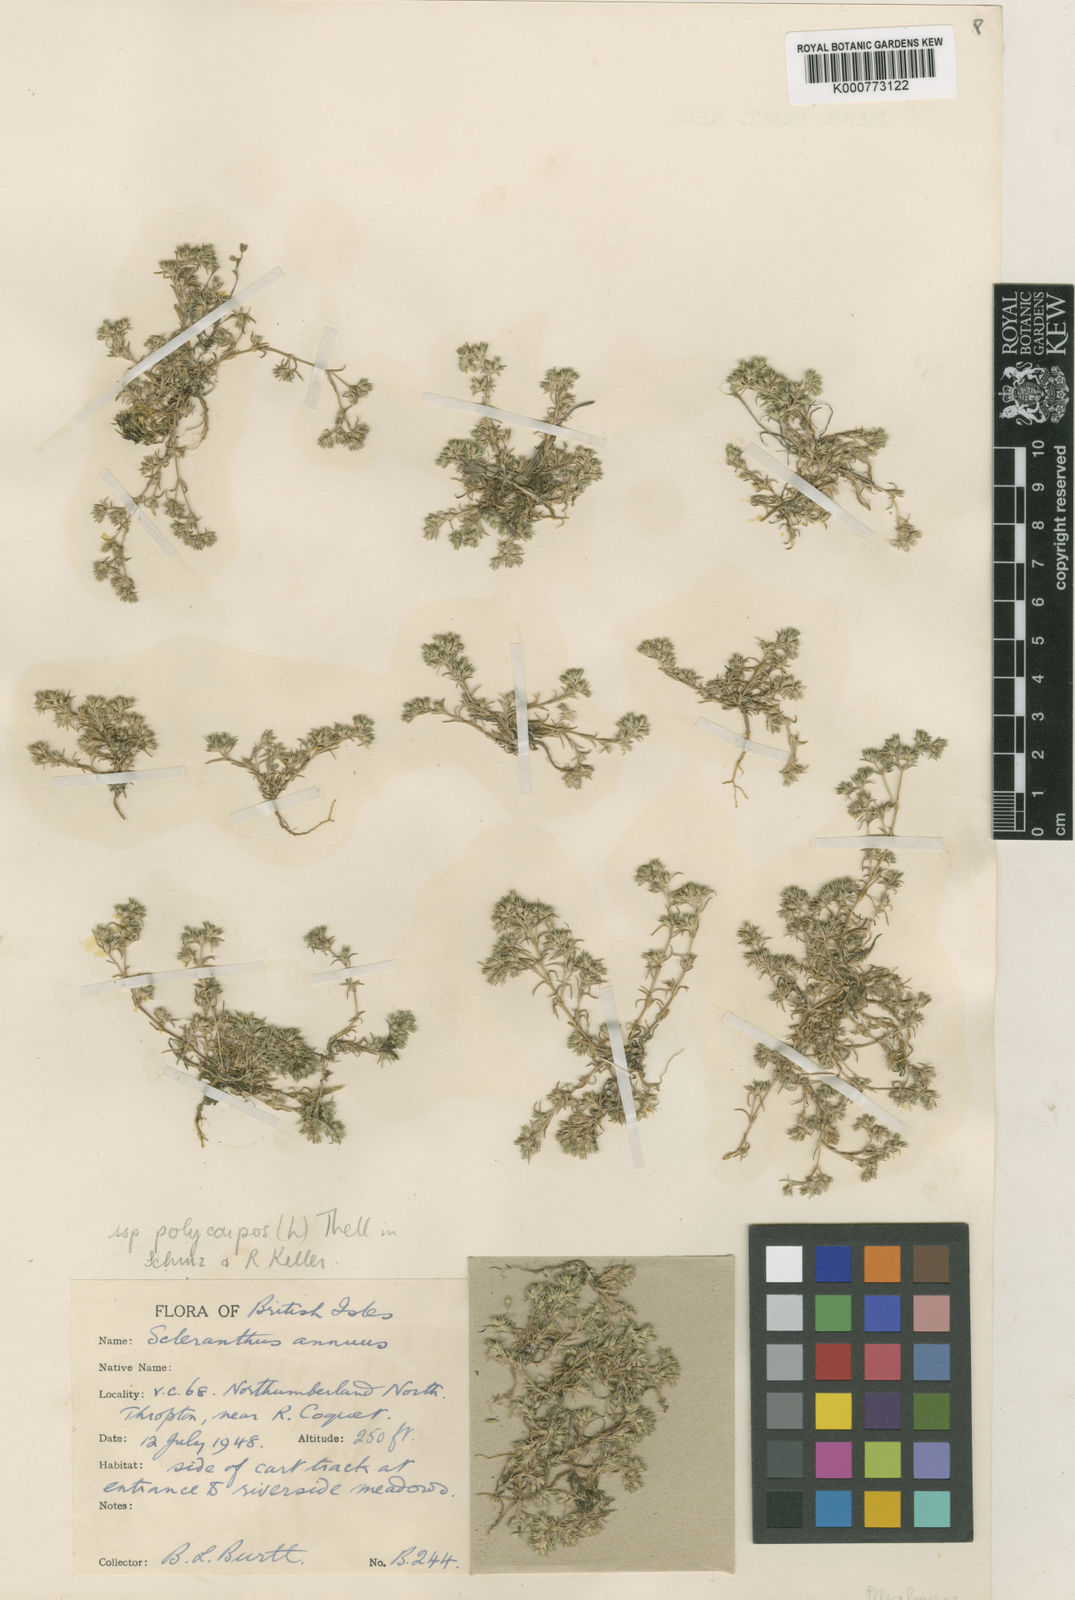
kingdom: Plantae
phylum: Tracheophyta
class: Magnoliopsida
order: Caryophyllales
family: Caryophyllaceae
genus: Scleranthus
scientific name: Scleranthus annuus
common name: Annual knawel
